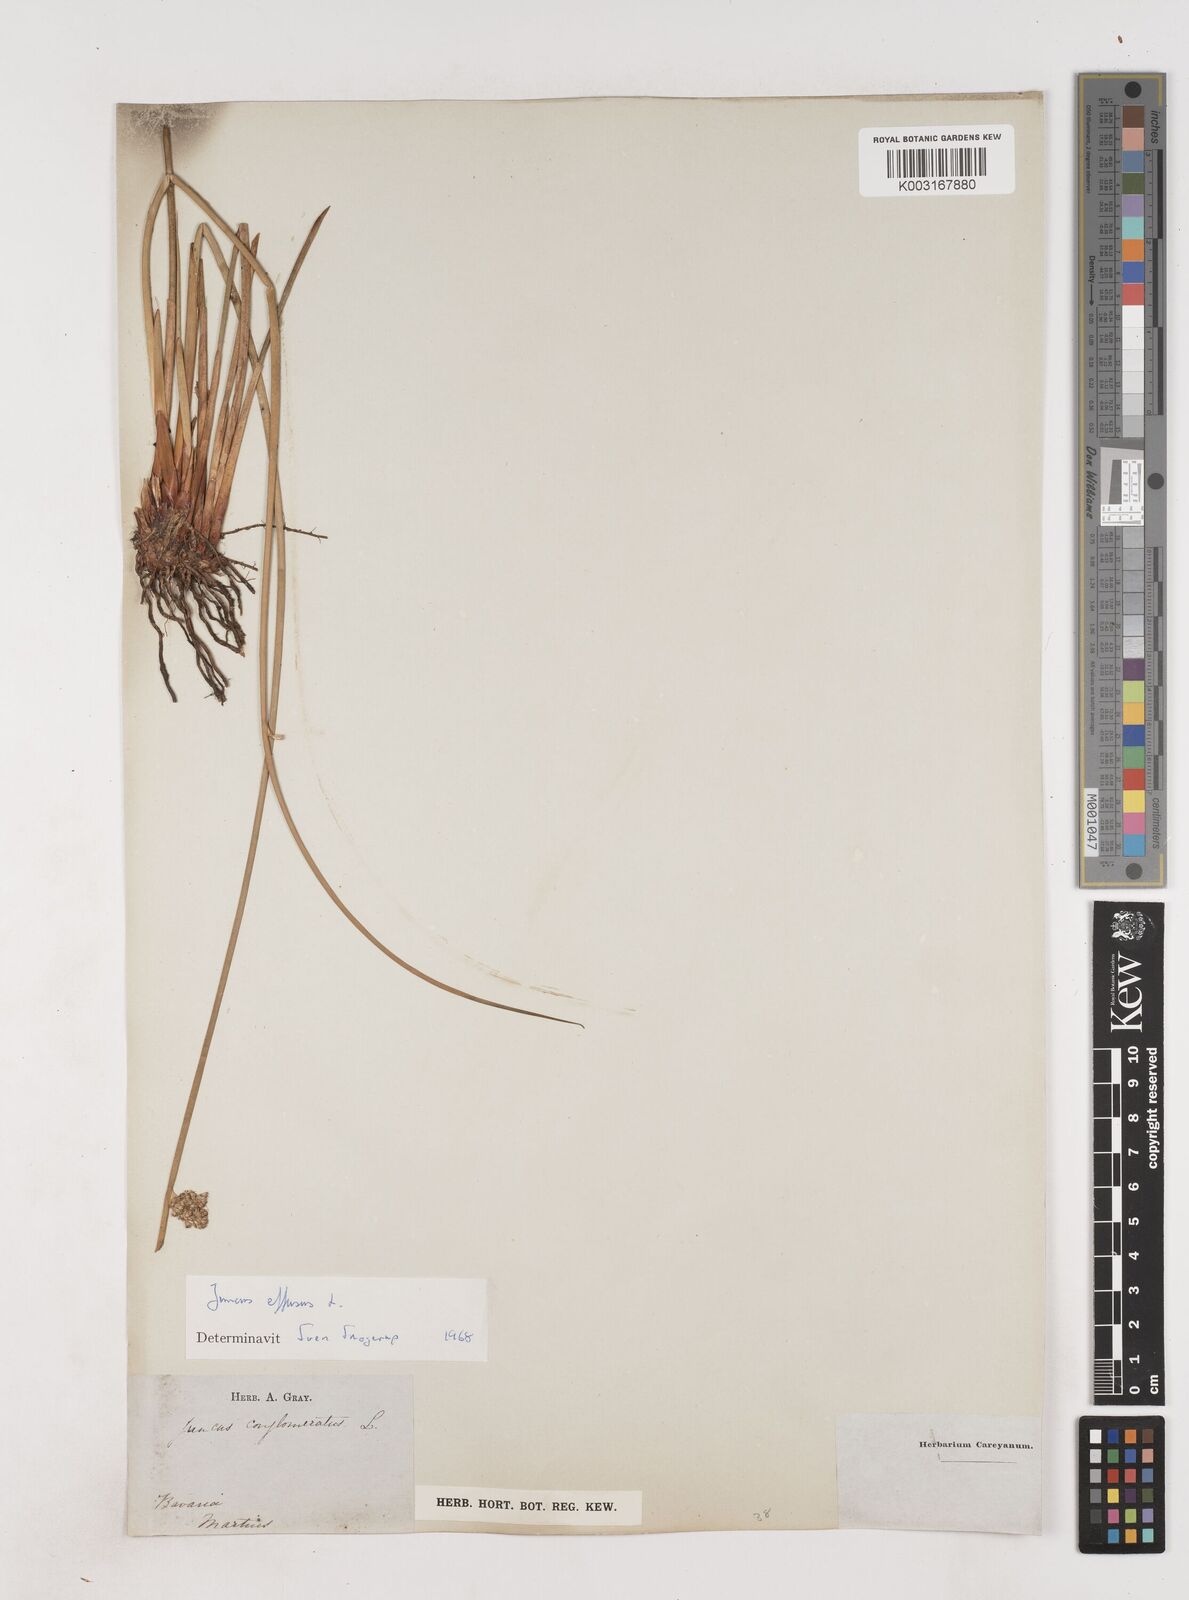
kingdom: Plantae
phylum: Tracheophyta
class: Liliopsida
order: Poales
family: Juncaceae
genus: Juncus
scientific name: Juncus effusus
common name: Soft rush
